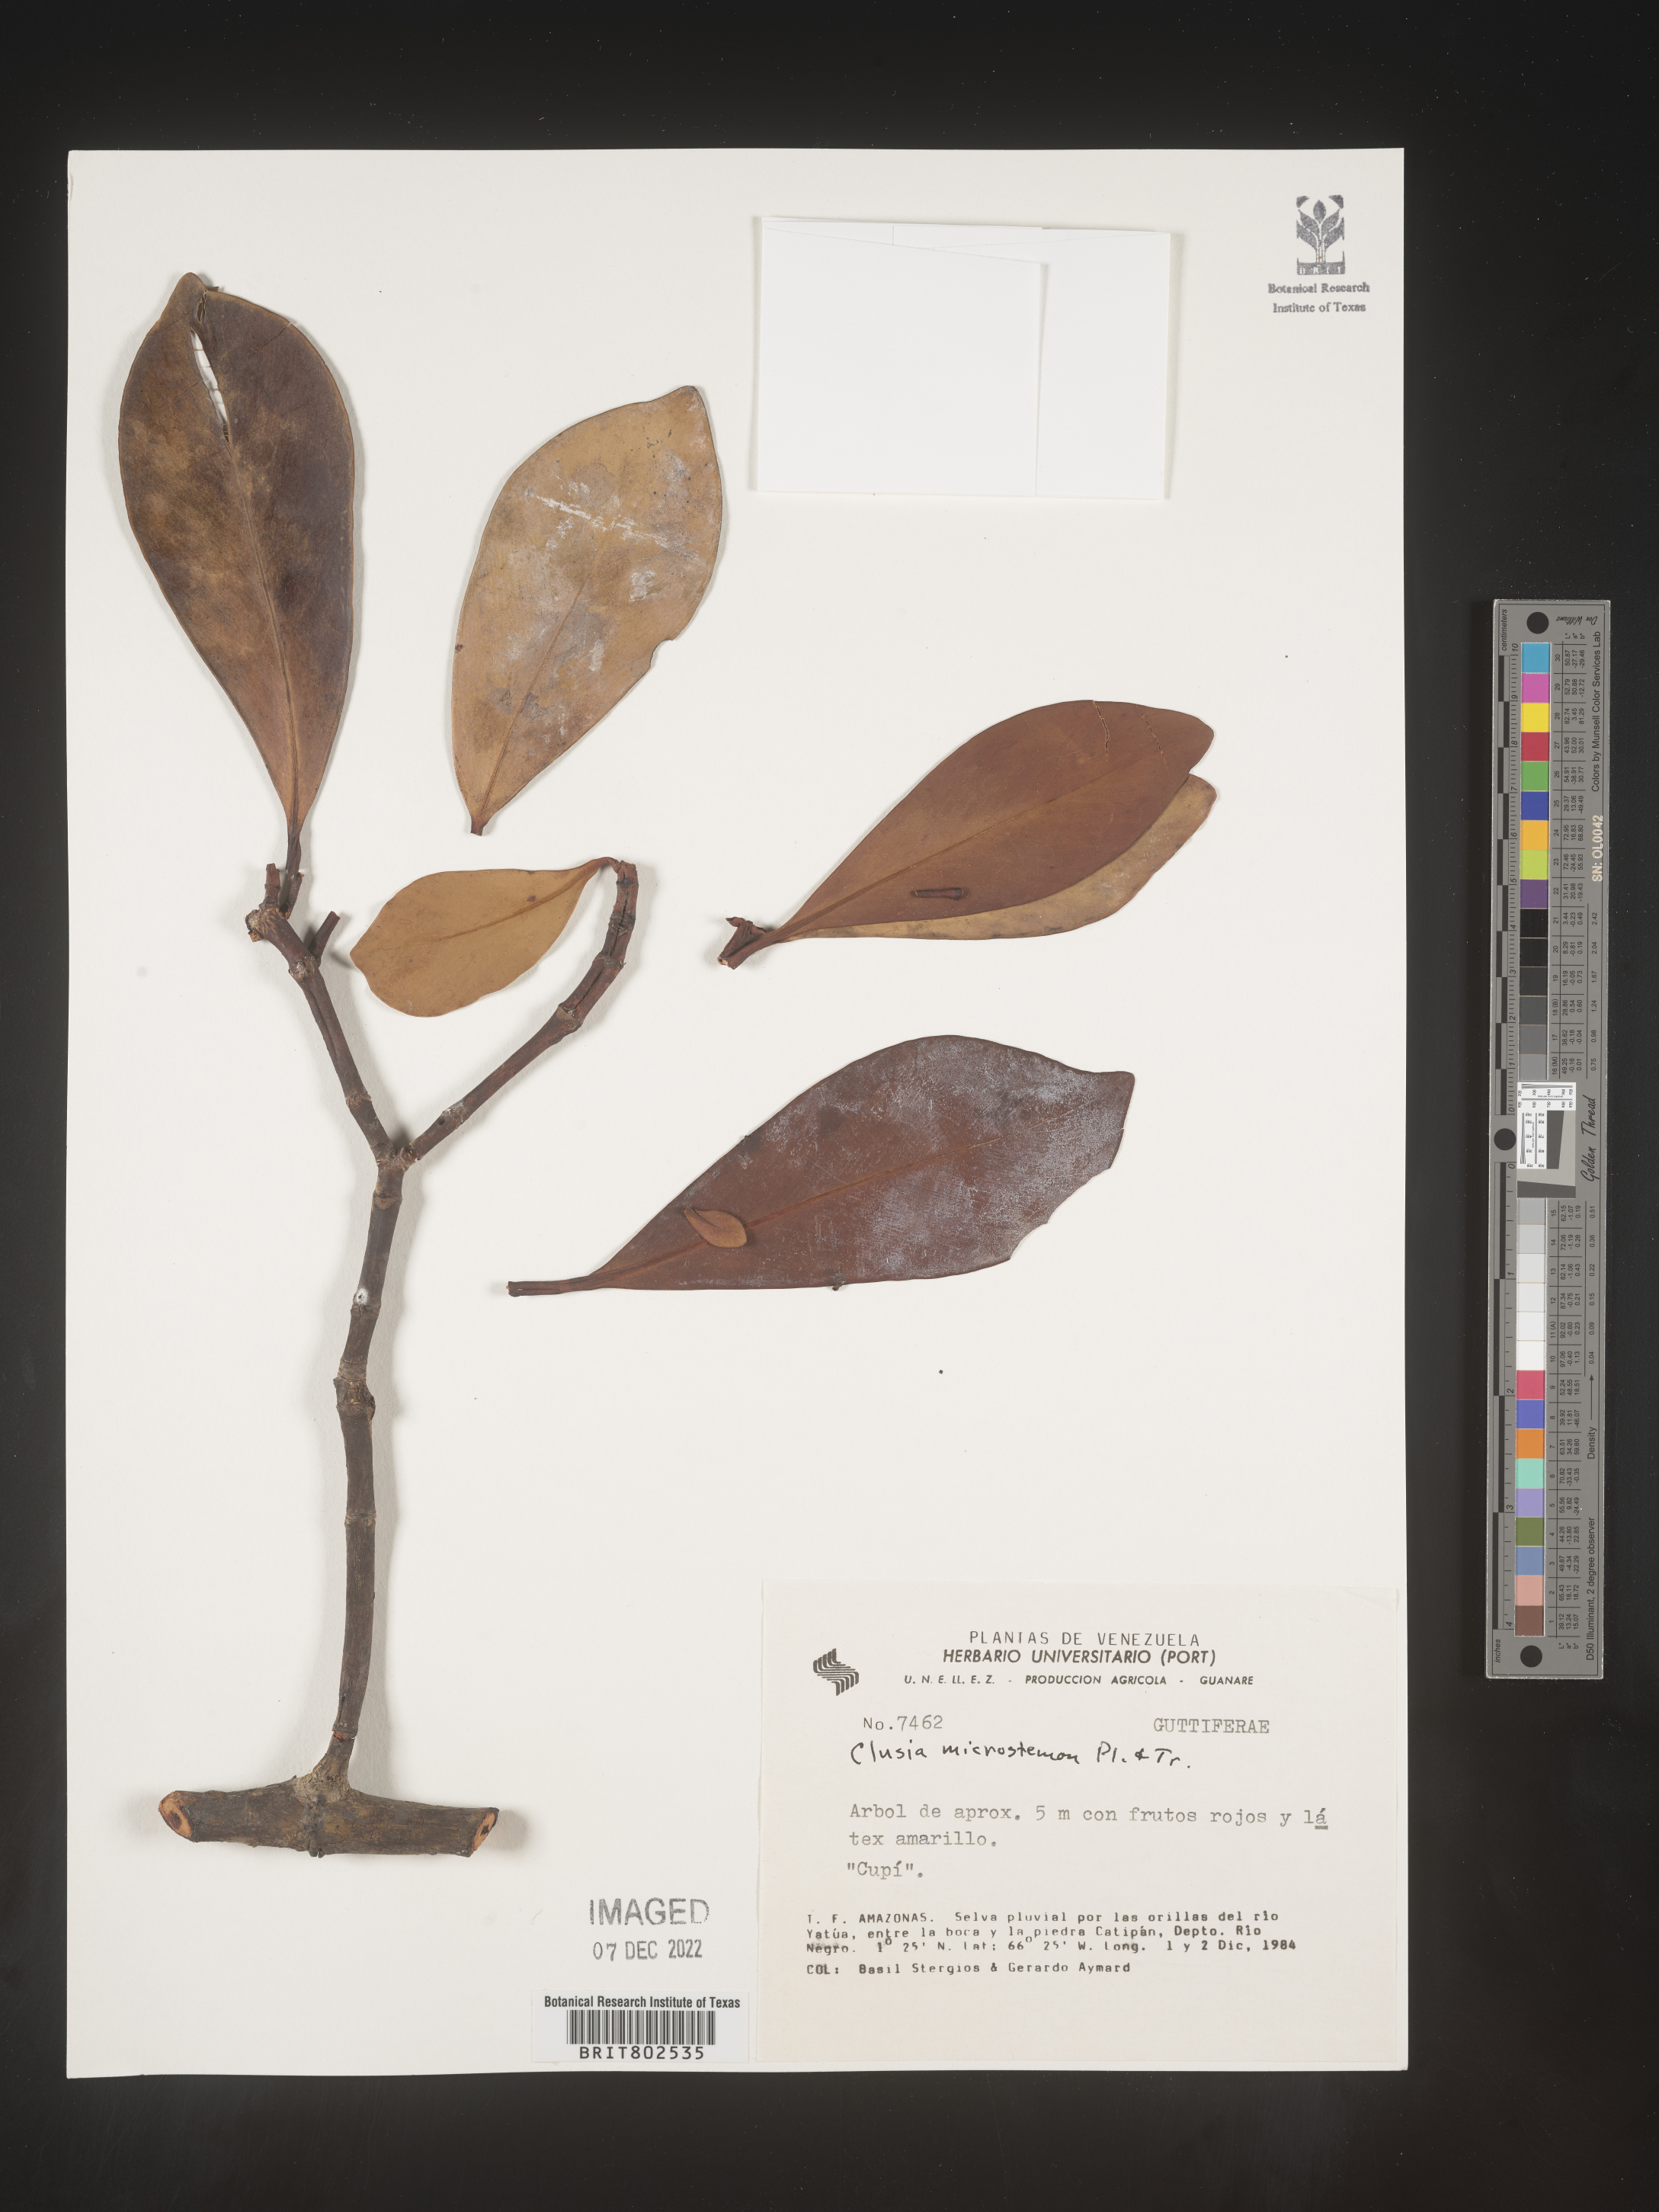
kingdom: Plantae
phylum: Tracheophyta
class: Magnoliopsida
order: Malpighiales
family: Clusiaceae
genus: Clusia
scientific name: Clusia microstemon
